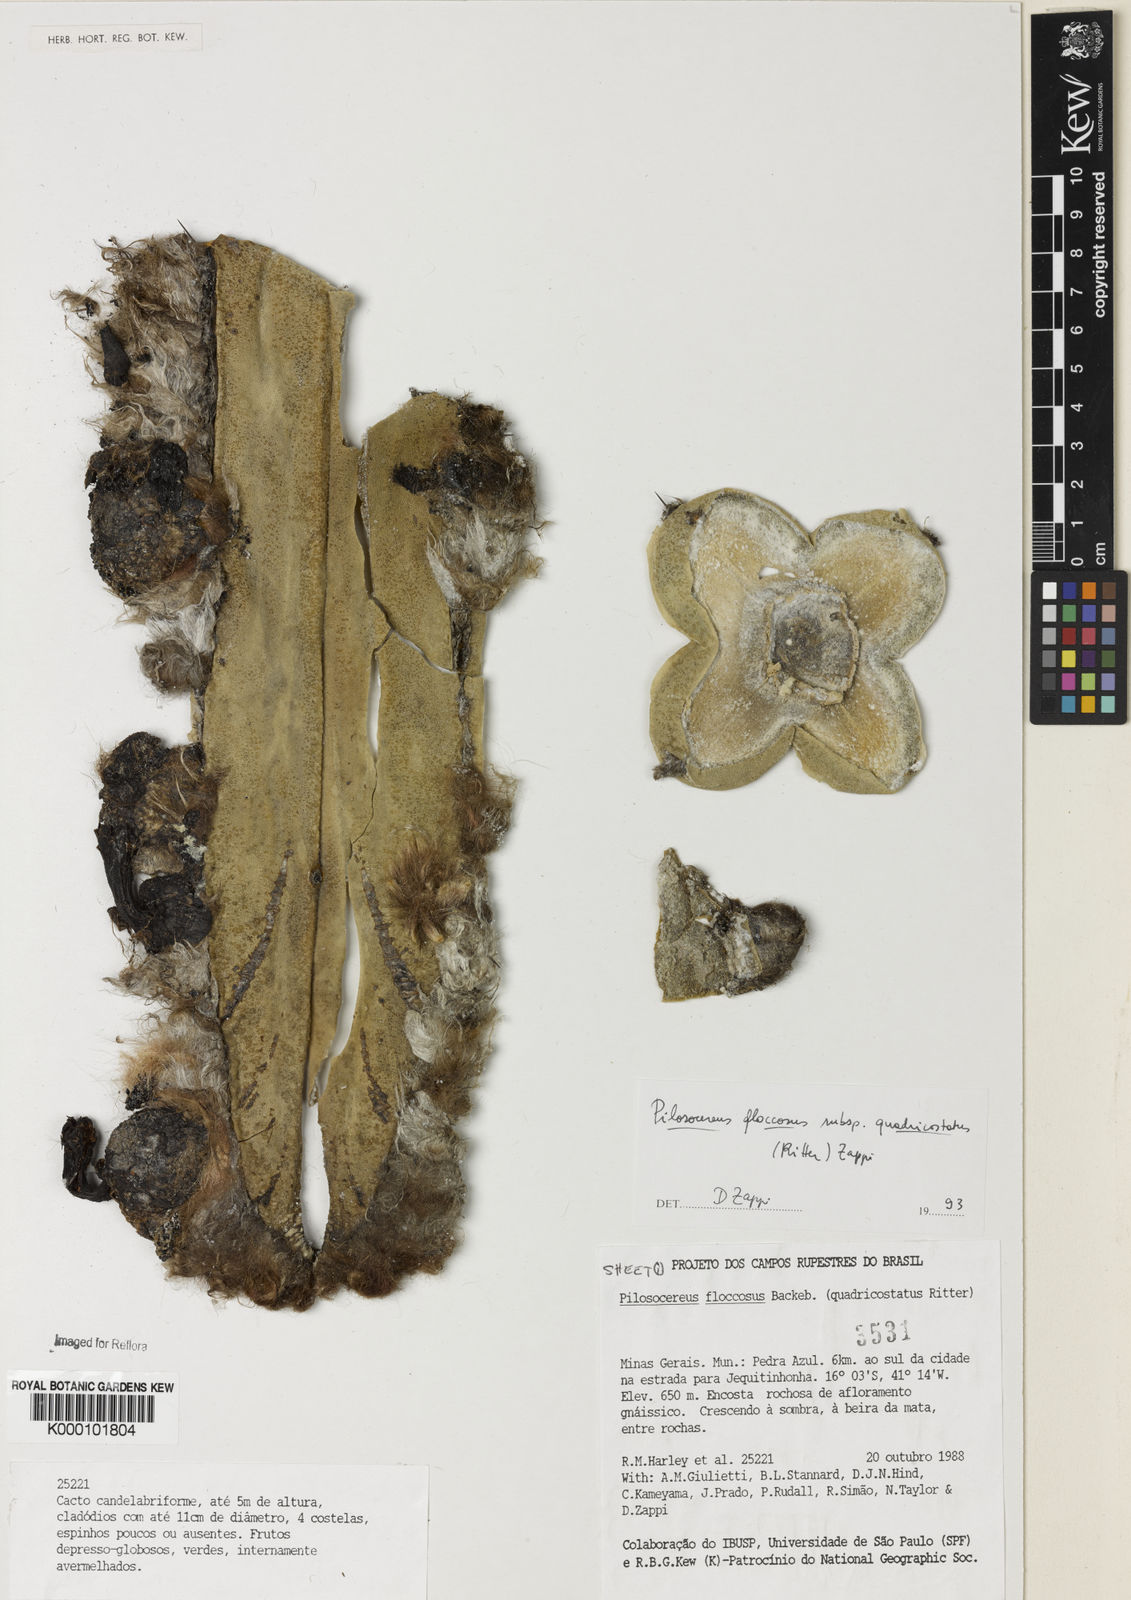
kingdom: Plantae
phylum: Tracheophyta
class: Magnoliopsida
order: Caryophyllales
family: Cactaceae
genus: Pilosocereus
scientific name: Pilosocereus floccosus
